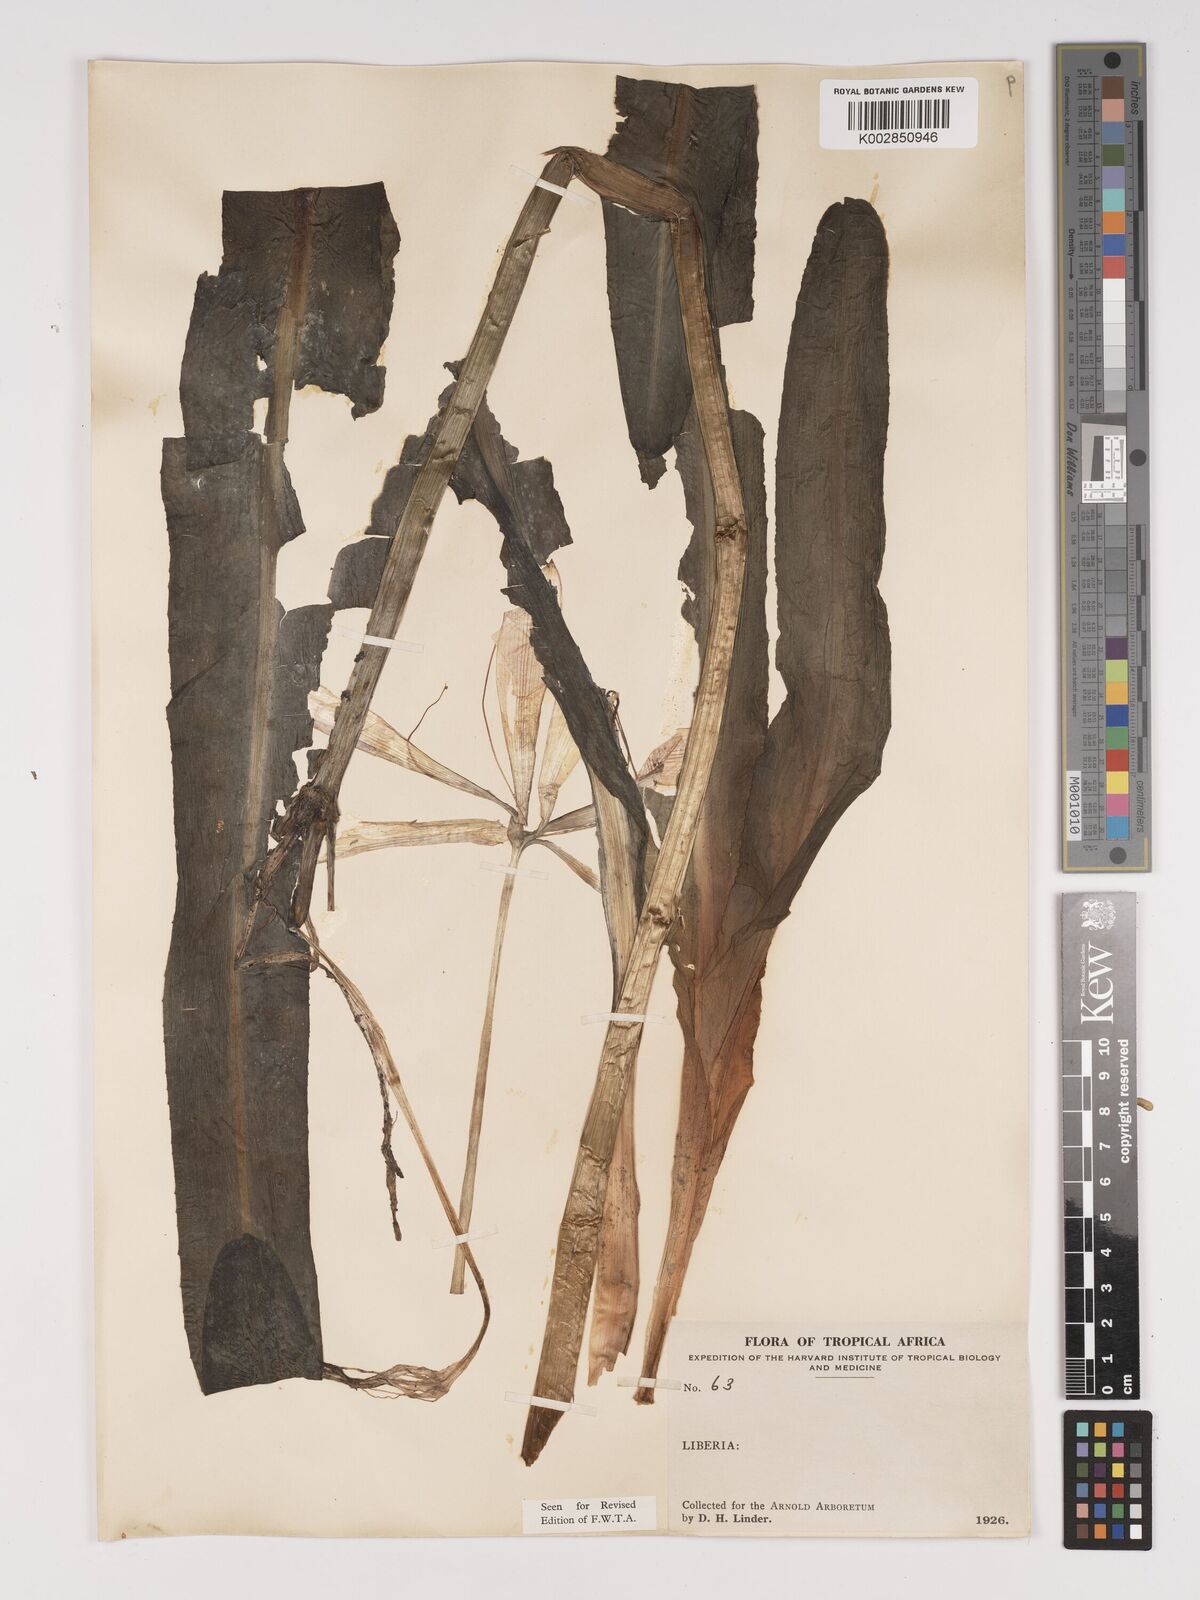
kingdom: Plantae
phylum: Tracheophyta
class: Liliopsida
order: Asparagales
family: Amaryllidaceae
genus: Crinum
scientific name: Crinum moorei
